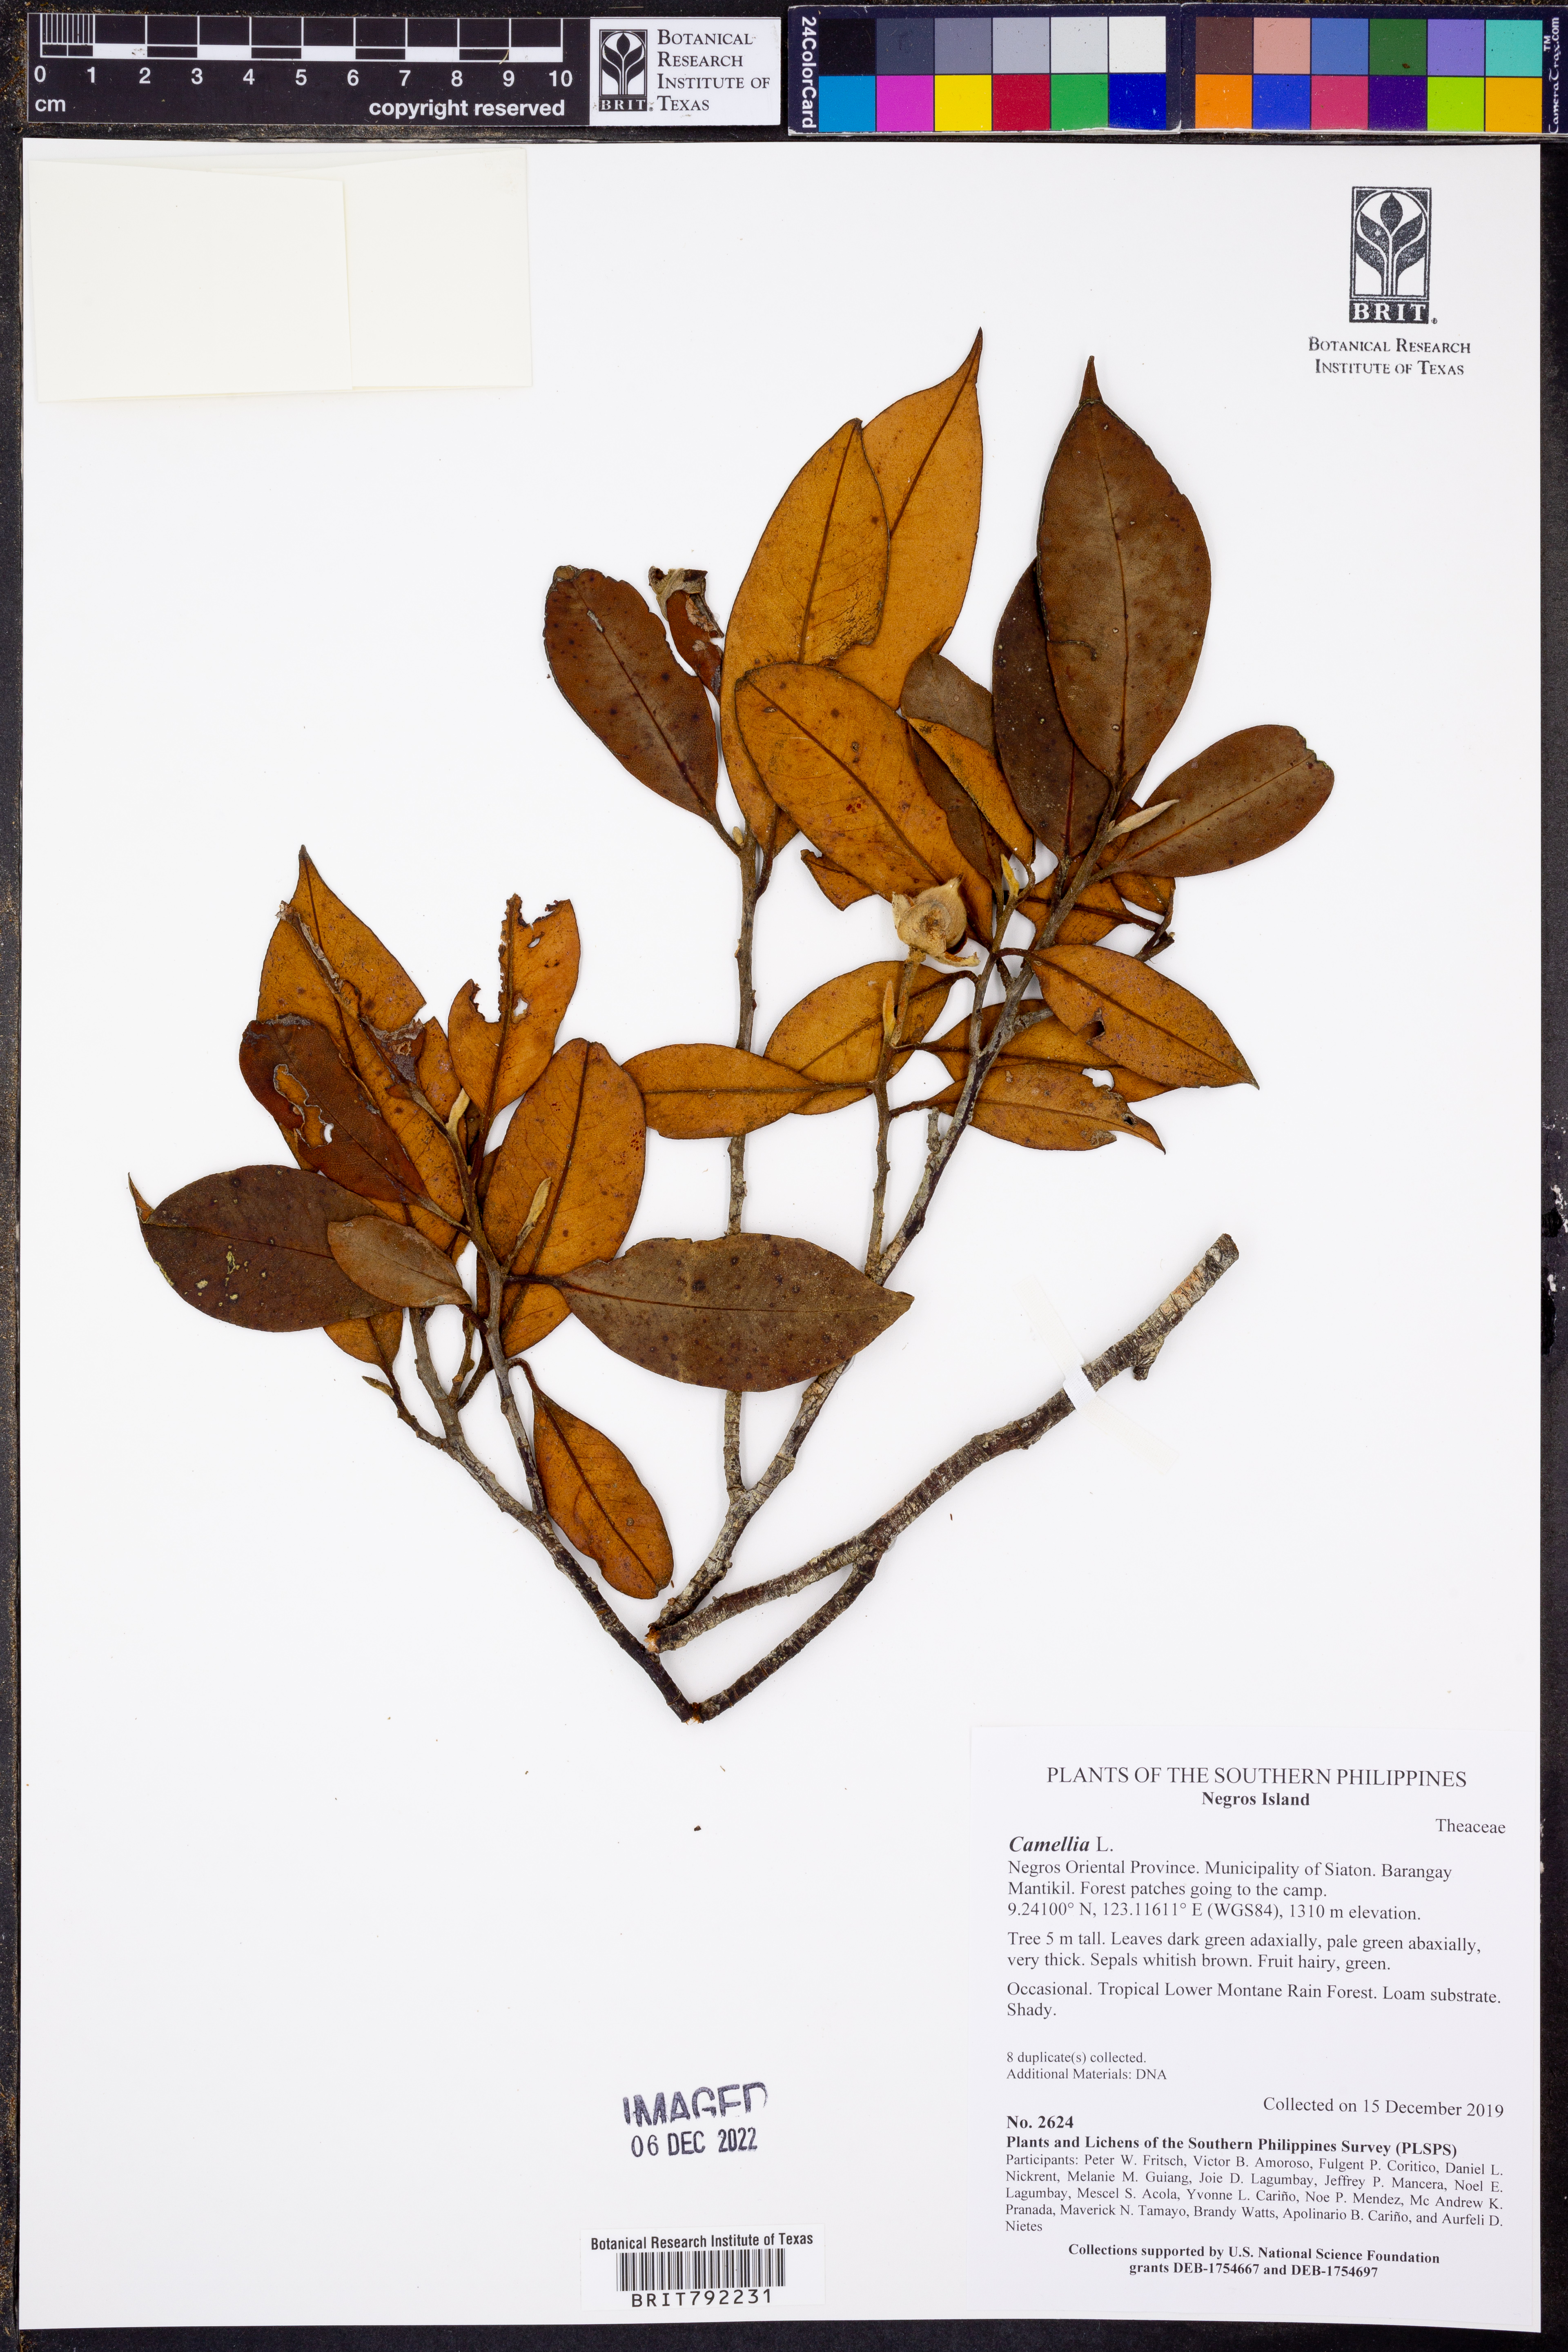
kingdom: Plantae
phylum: Tracheophyta
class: Magnoliopsida
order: Ericales
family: Theaceae
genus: Camellia
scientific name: Camellia
